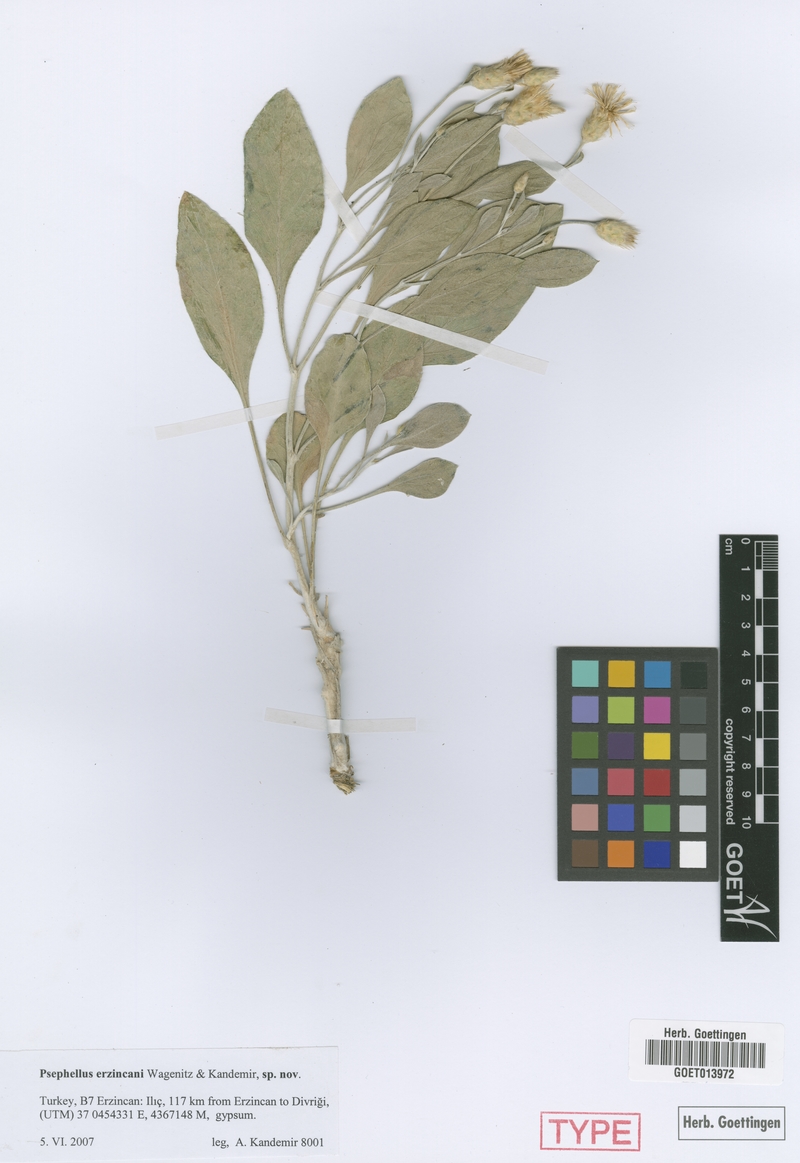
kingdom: Plantae
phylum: Tracheophyta
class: Magnoliopsida
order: Asterales
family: Asteraceae
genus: Psephellus
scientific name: Psephellus erzincani
